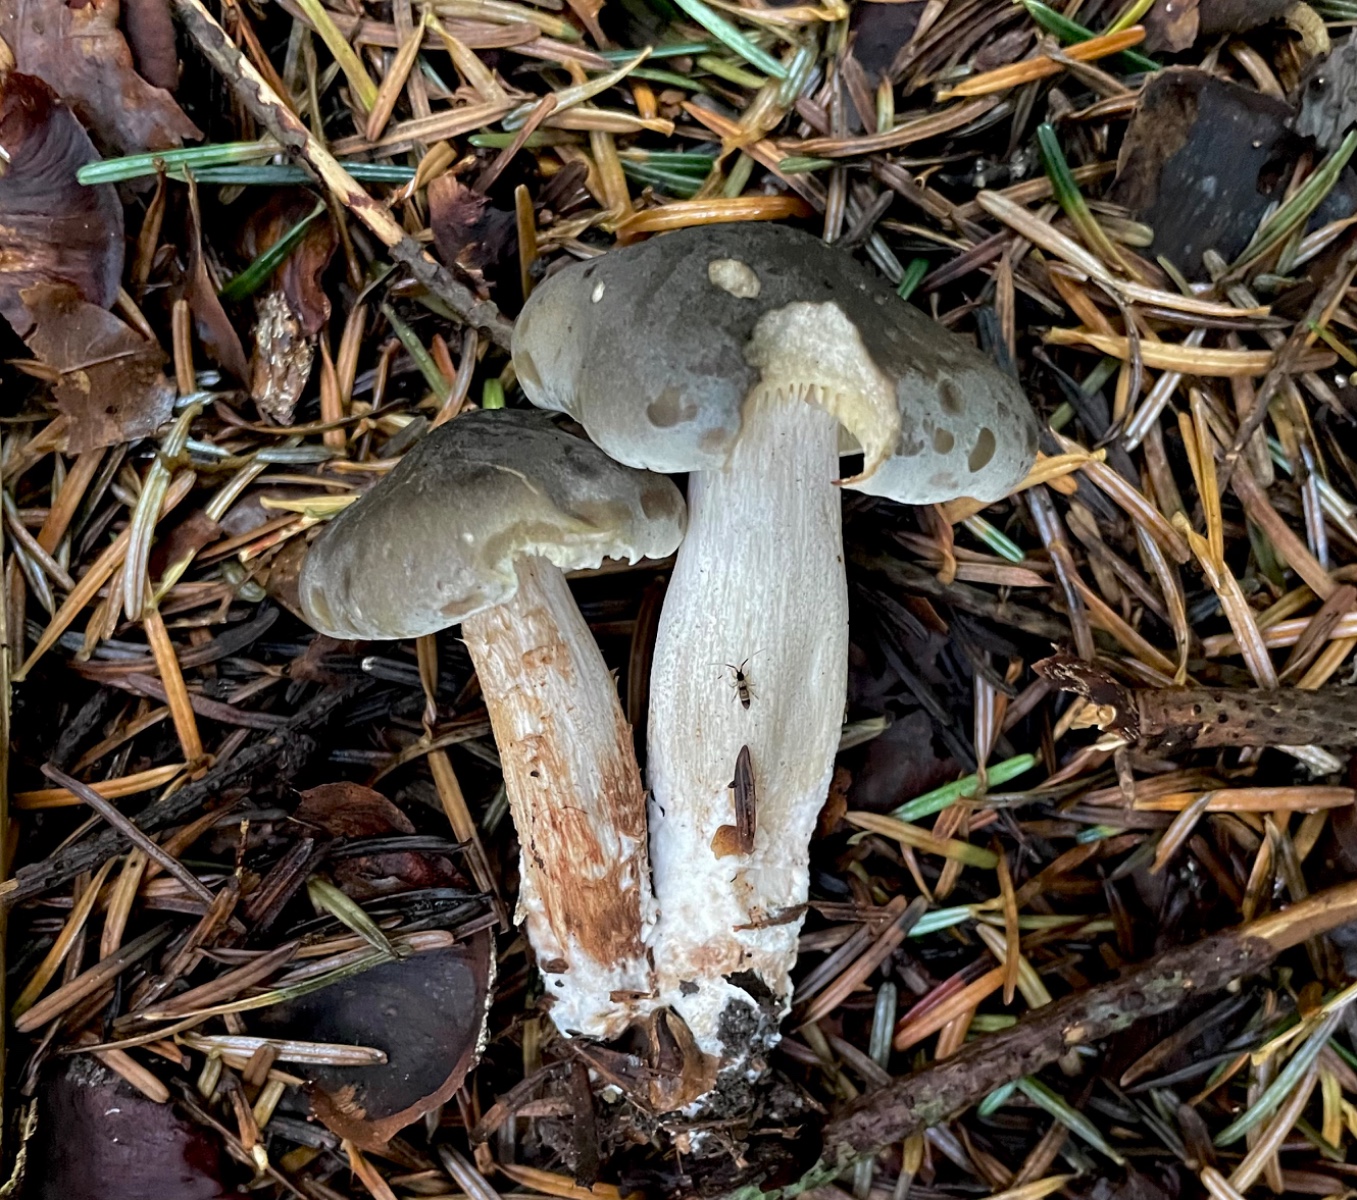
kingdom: Fungi
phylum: Basidiomycota
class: Agaricomycetes
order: Agaricales
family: Tricholomataceae
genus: Tricholoma
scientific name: Tricholoma saponaceum
